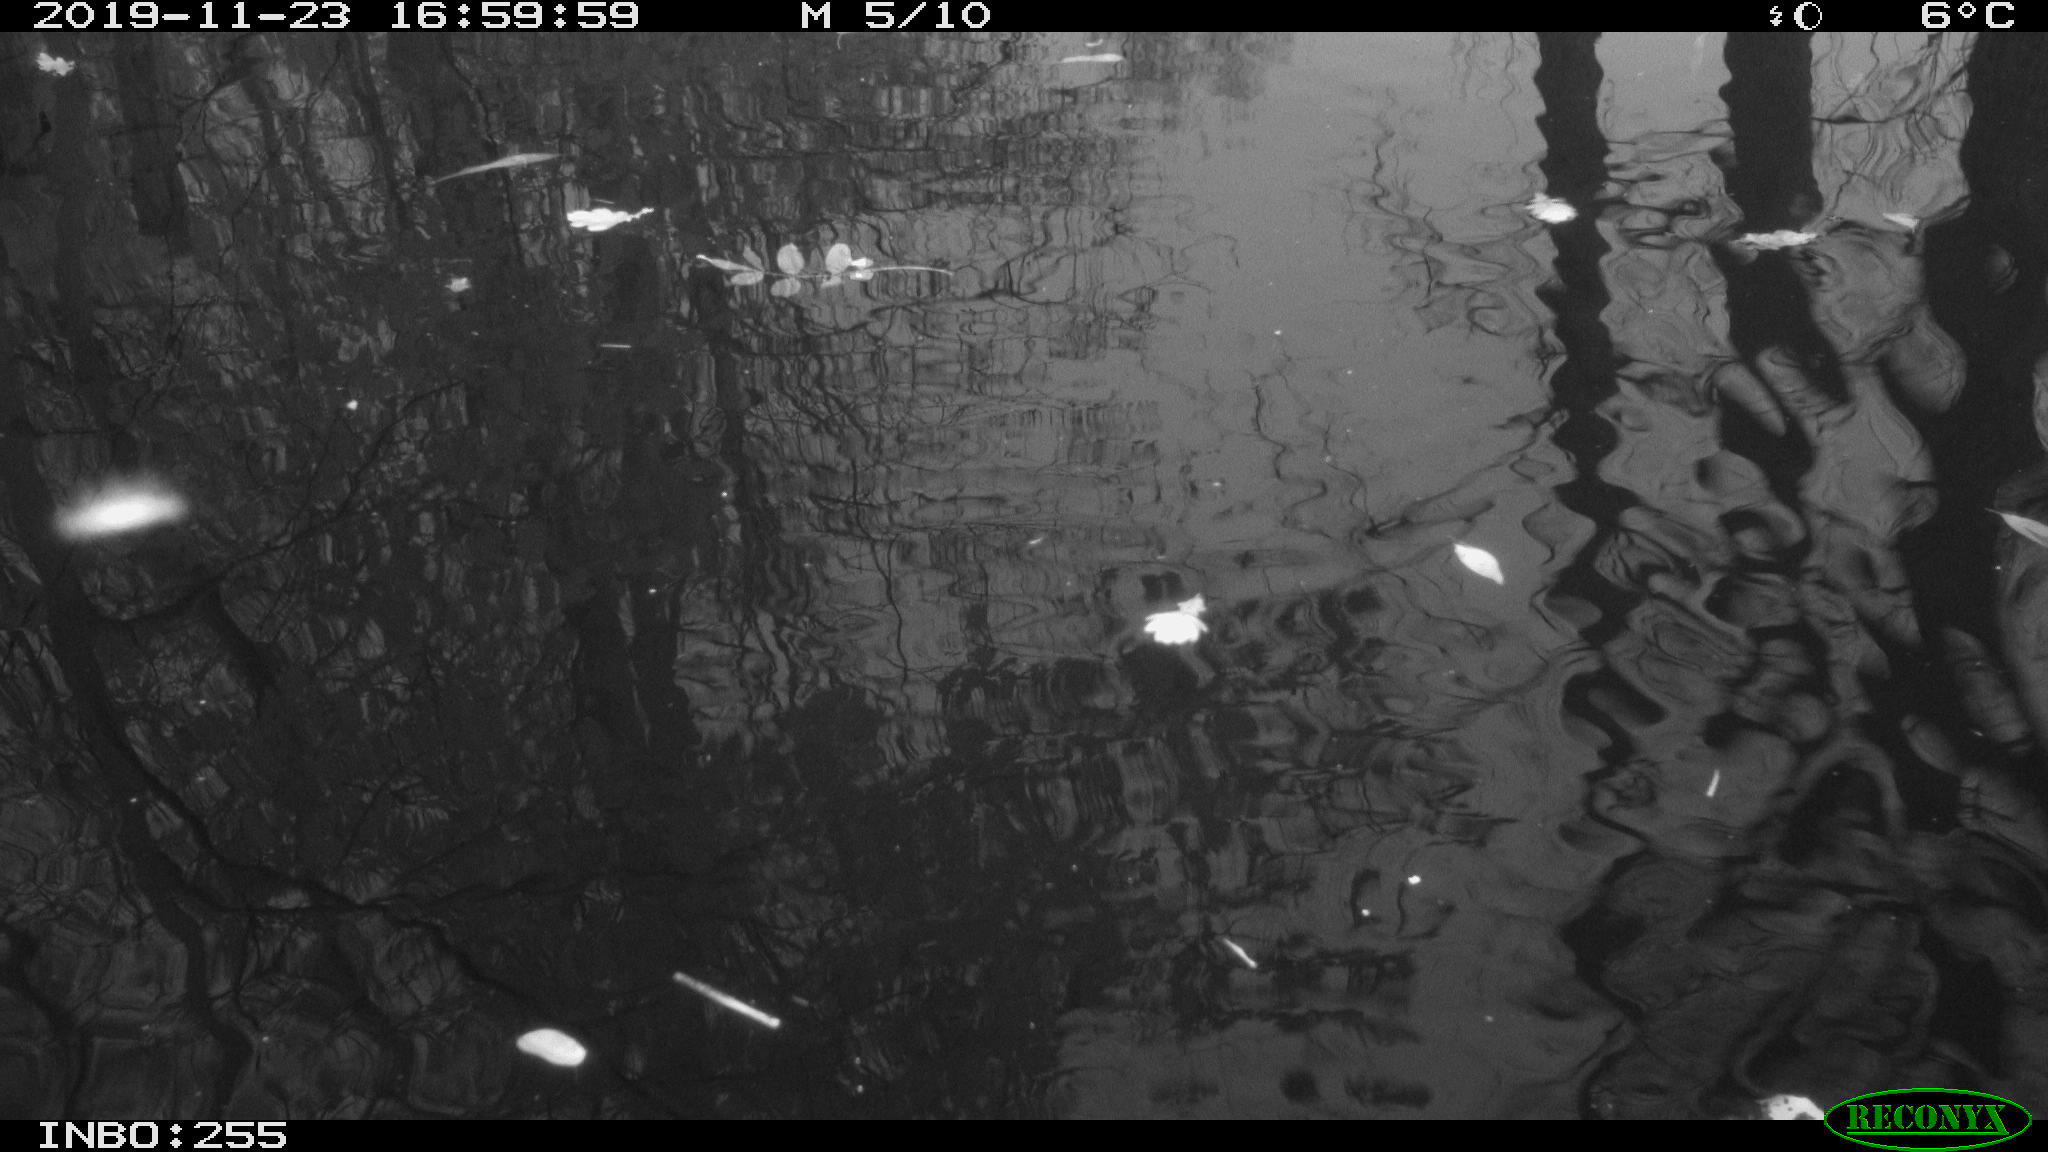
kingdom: Animalia
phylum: Chordata
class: Aves
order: Gruiformes
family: Rallidae
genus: Gallinula
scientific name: Gallinula chloropus
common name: Common moorhen
